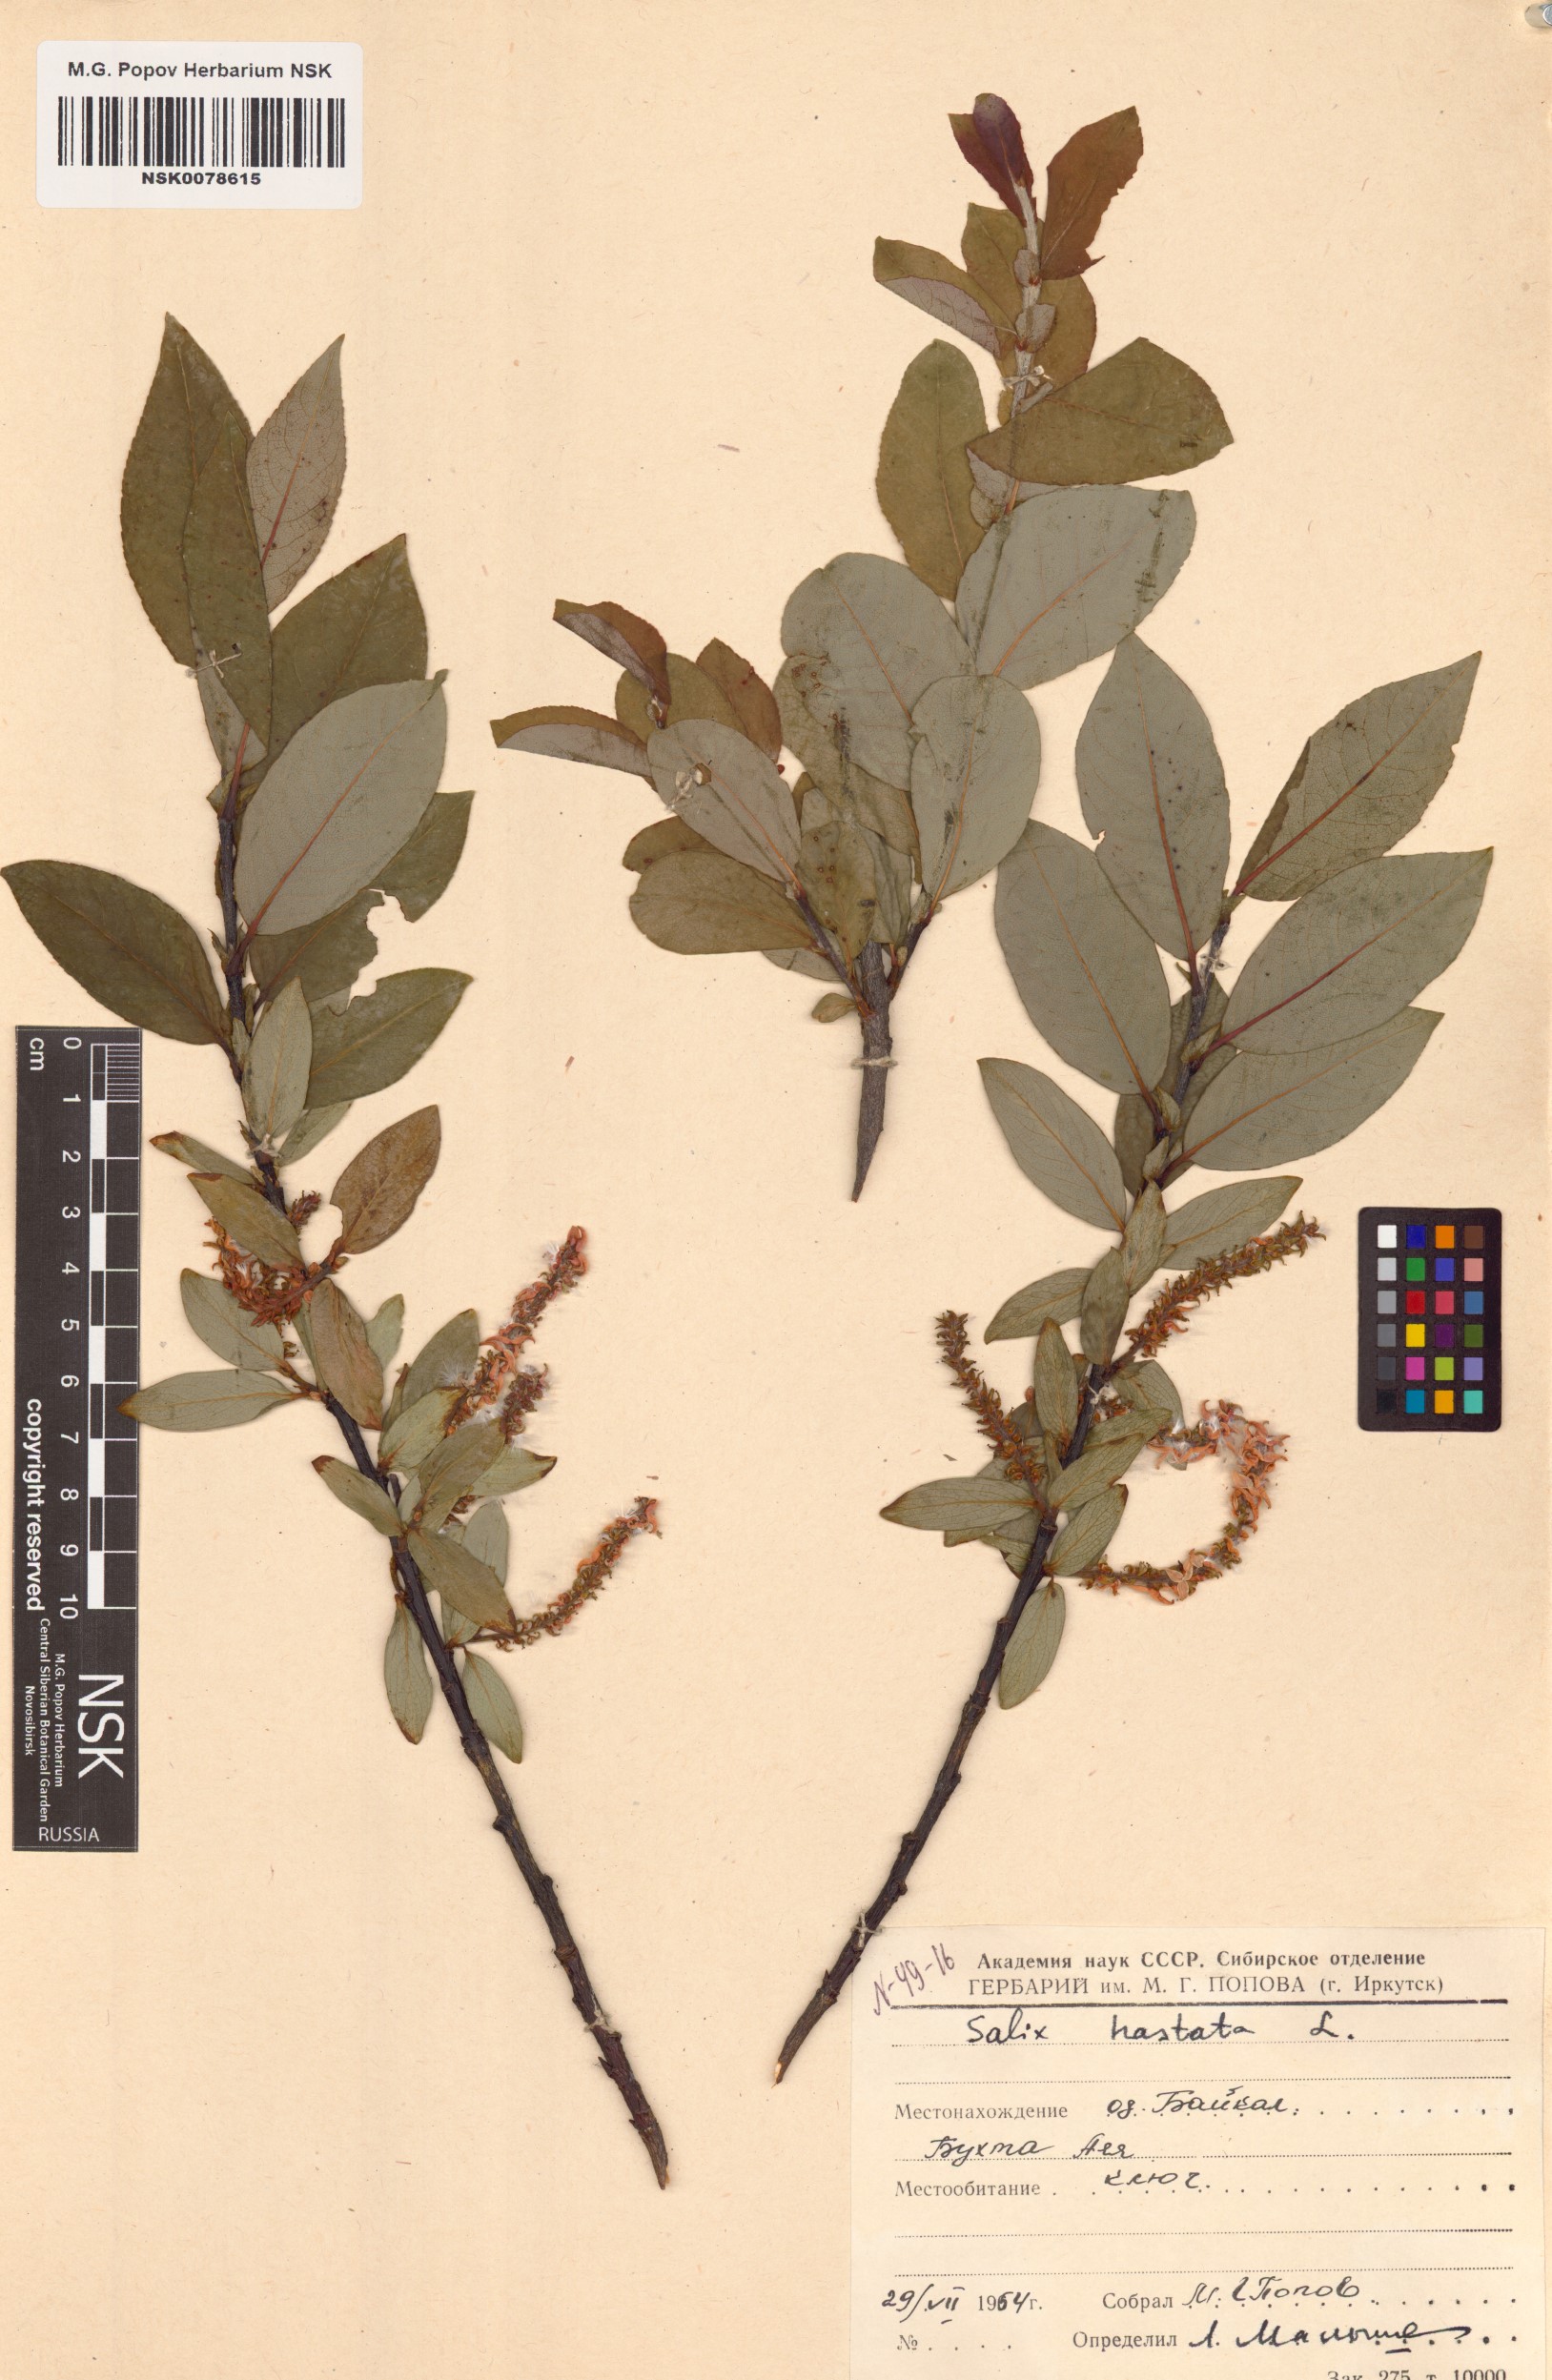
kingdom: Plantae
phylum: Tracheophyta
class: Magnoliopsida
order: Malpighiales
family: Salicaceae
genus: Salix
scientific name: Salix hastata
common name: Halberd willow
